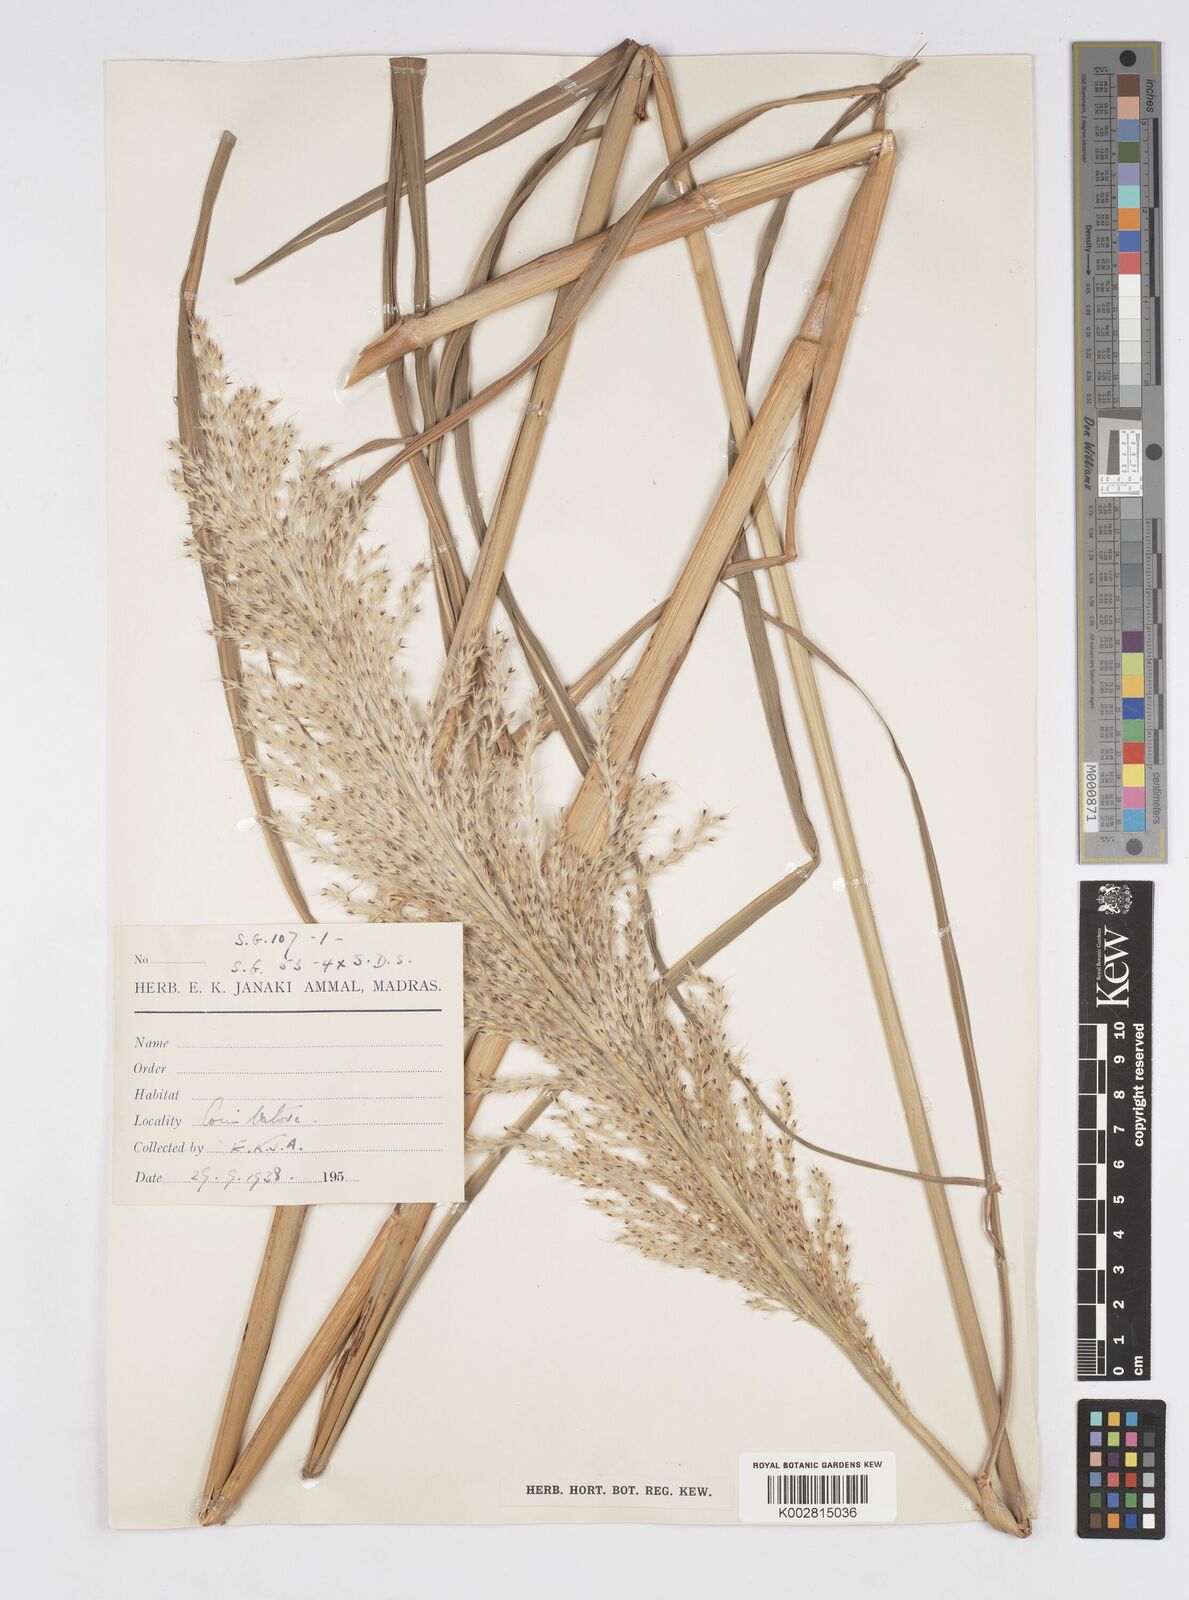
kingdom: Plantae
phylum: Tracheophyta
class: Liliopsida
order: Poales
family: Poaceae
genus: Saccharum
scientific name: Saccharum
